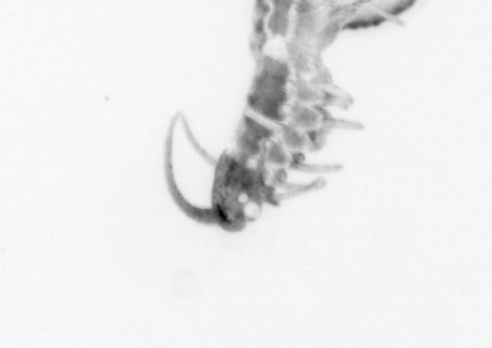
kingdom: Animalia
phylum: Annelida
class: Polychaeta
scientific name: Polychaeta
